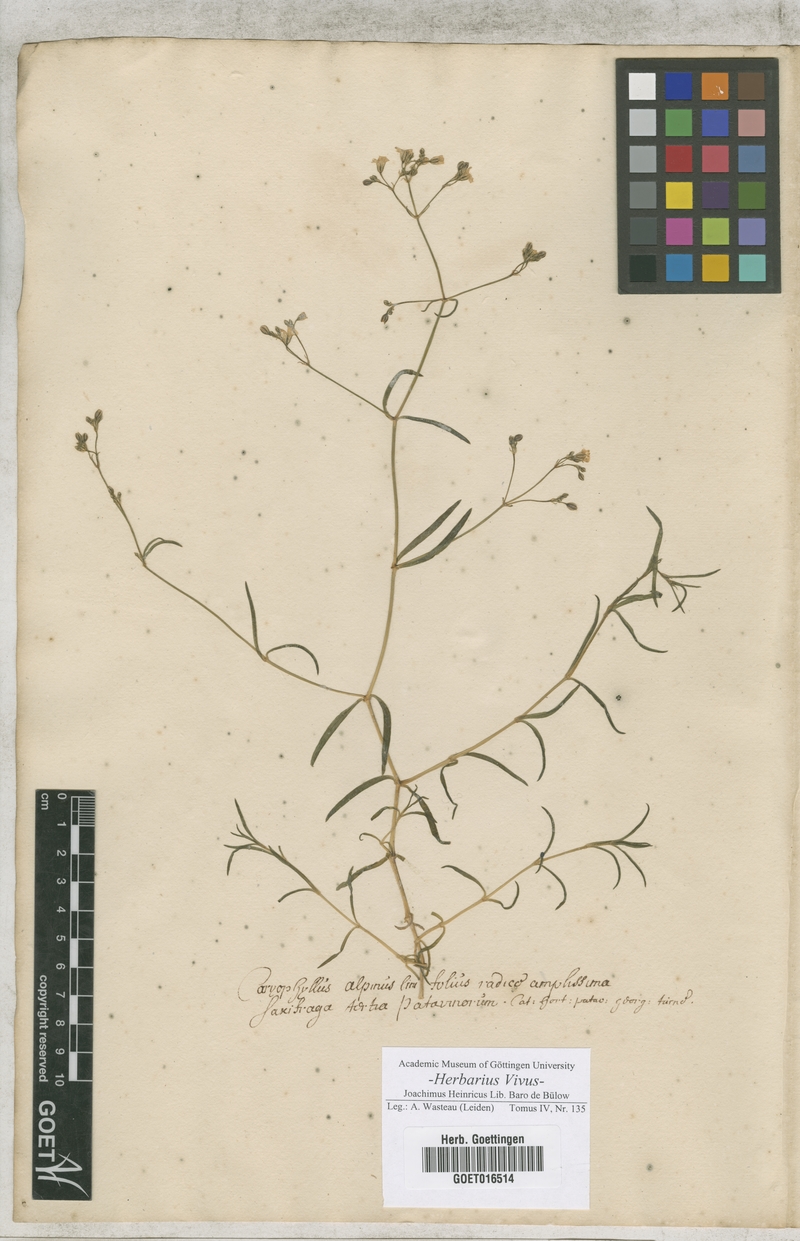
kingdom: Plantae
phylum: Tracheophyta
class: Magnoliopsida
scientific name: Magnoliopsida
